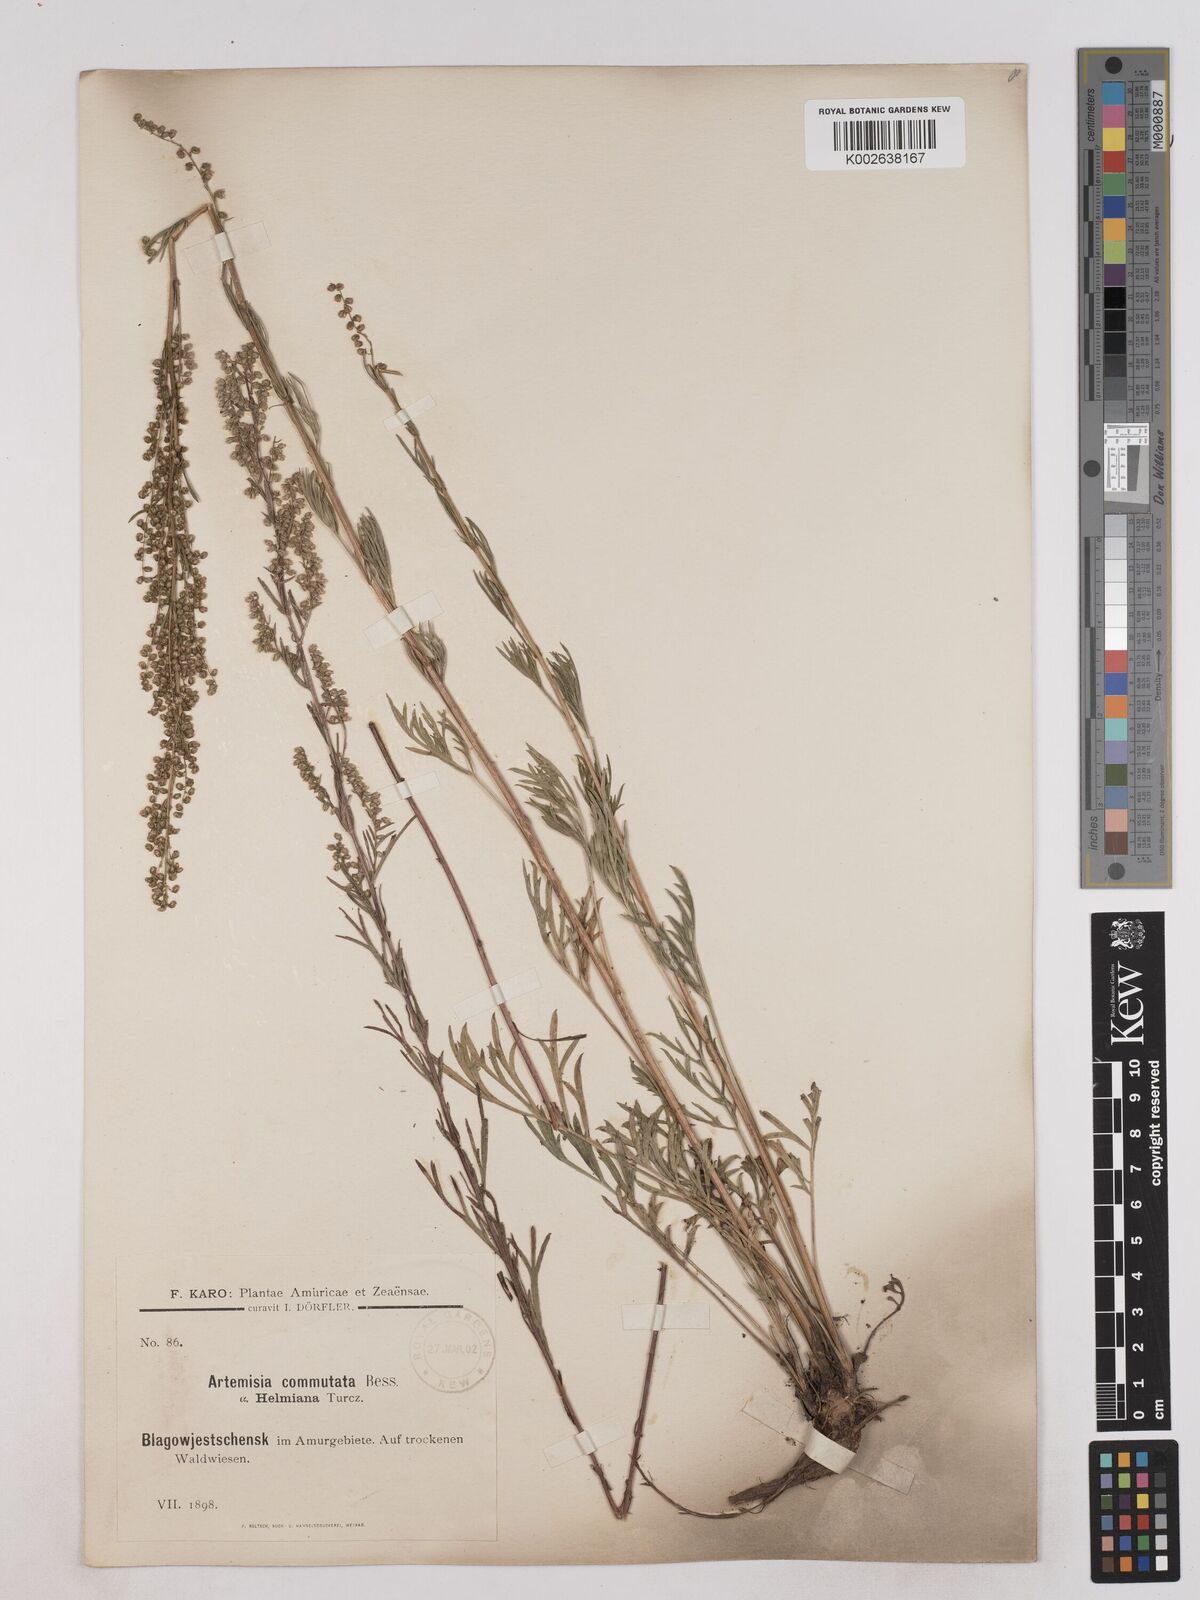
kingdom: Plantae
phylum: Tracheophyta
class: Magnoliopsida
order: Asterales
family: Asteraceae
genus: Artemisia
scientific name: Artemisia pubescens
